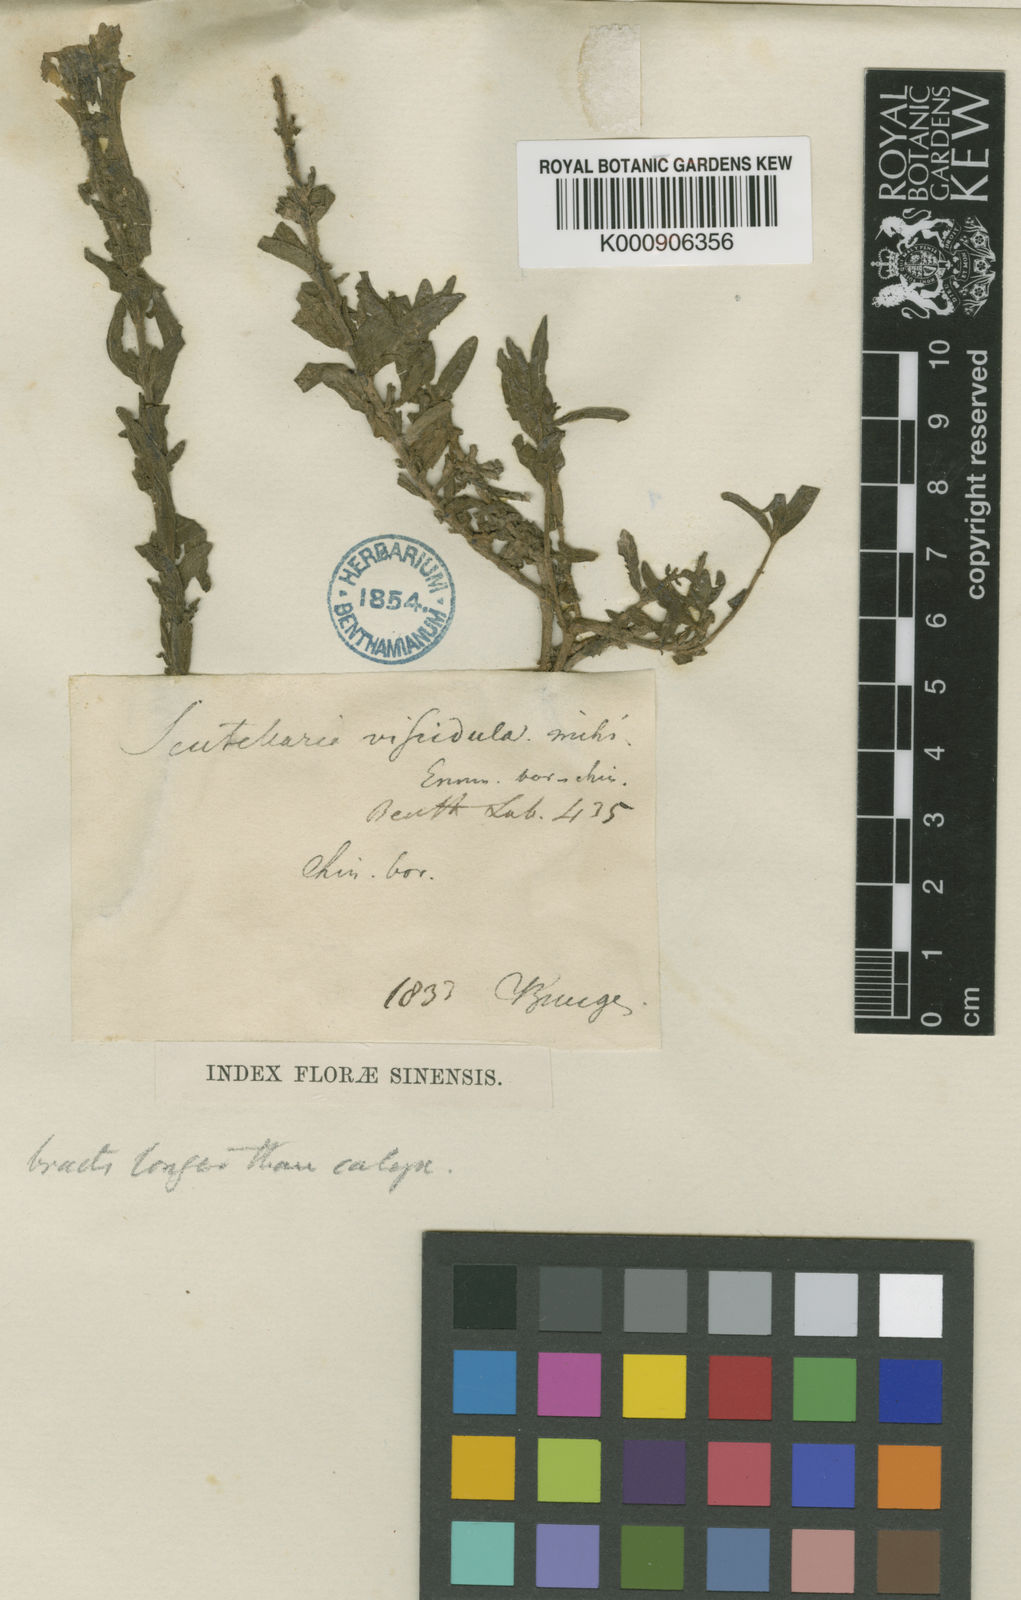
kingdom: Plantae
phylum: Tracheophyta
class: Magnoliopsida
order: Lamiales
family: Lamiaceae
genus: Scutellaria
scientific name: Scutellaria viscidula
